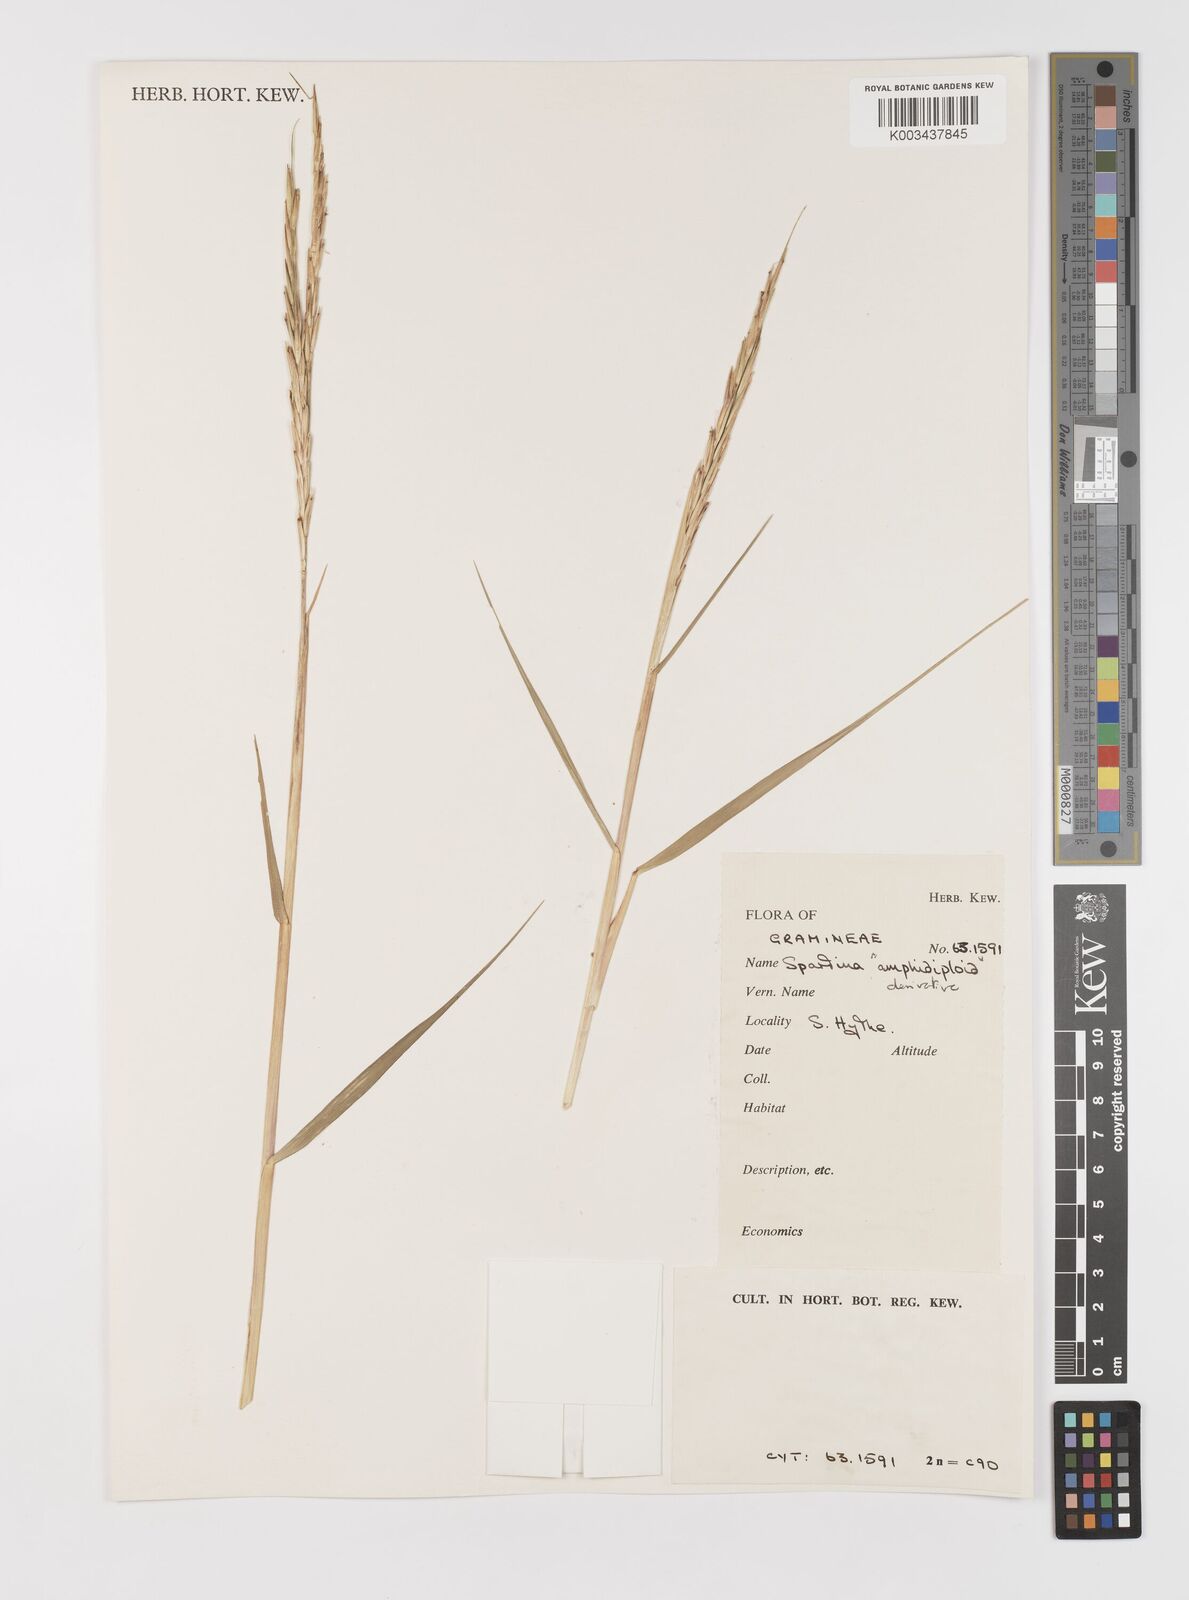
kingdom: Animalia
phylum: Mollusca
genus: Spartina
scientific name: Spartina
